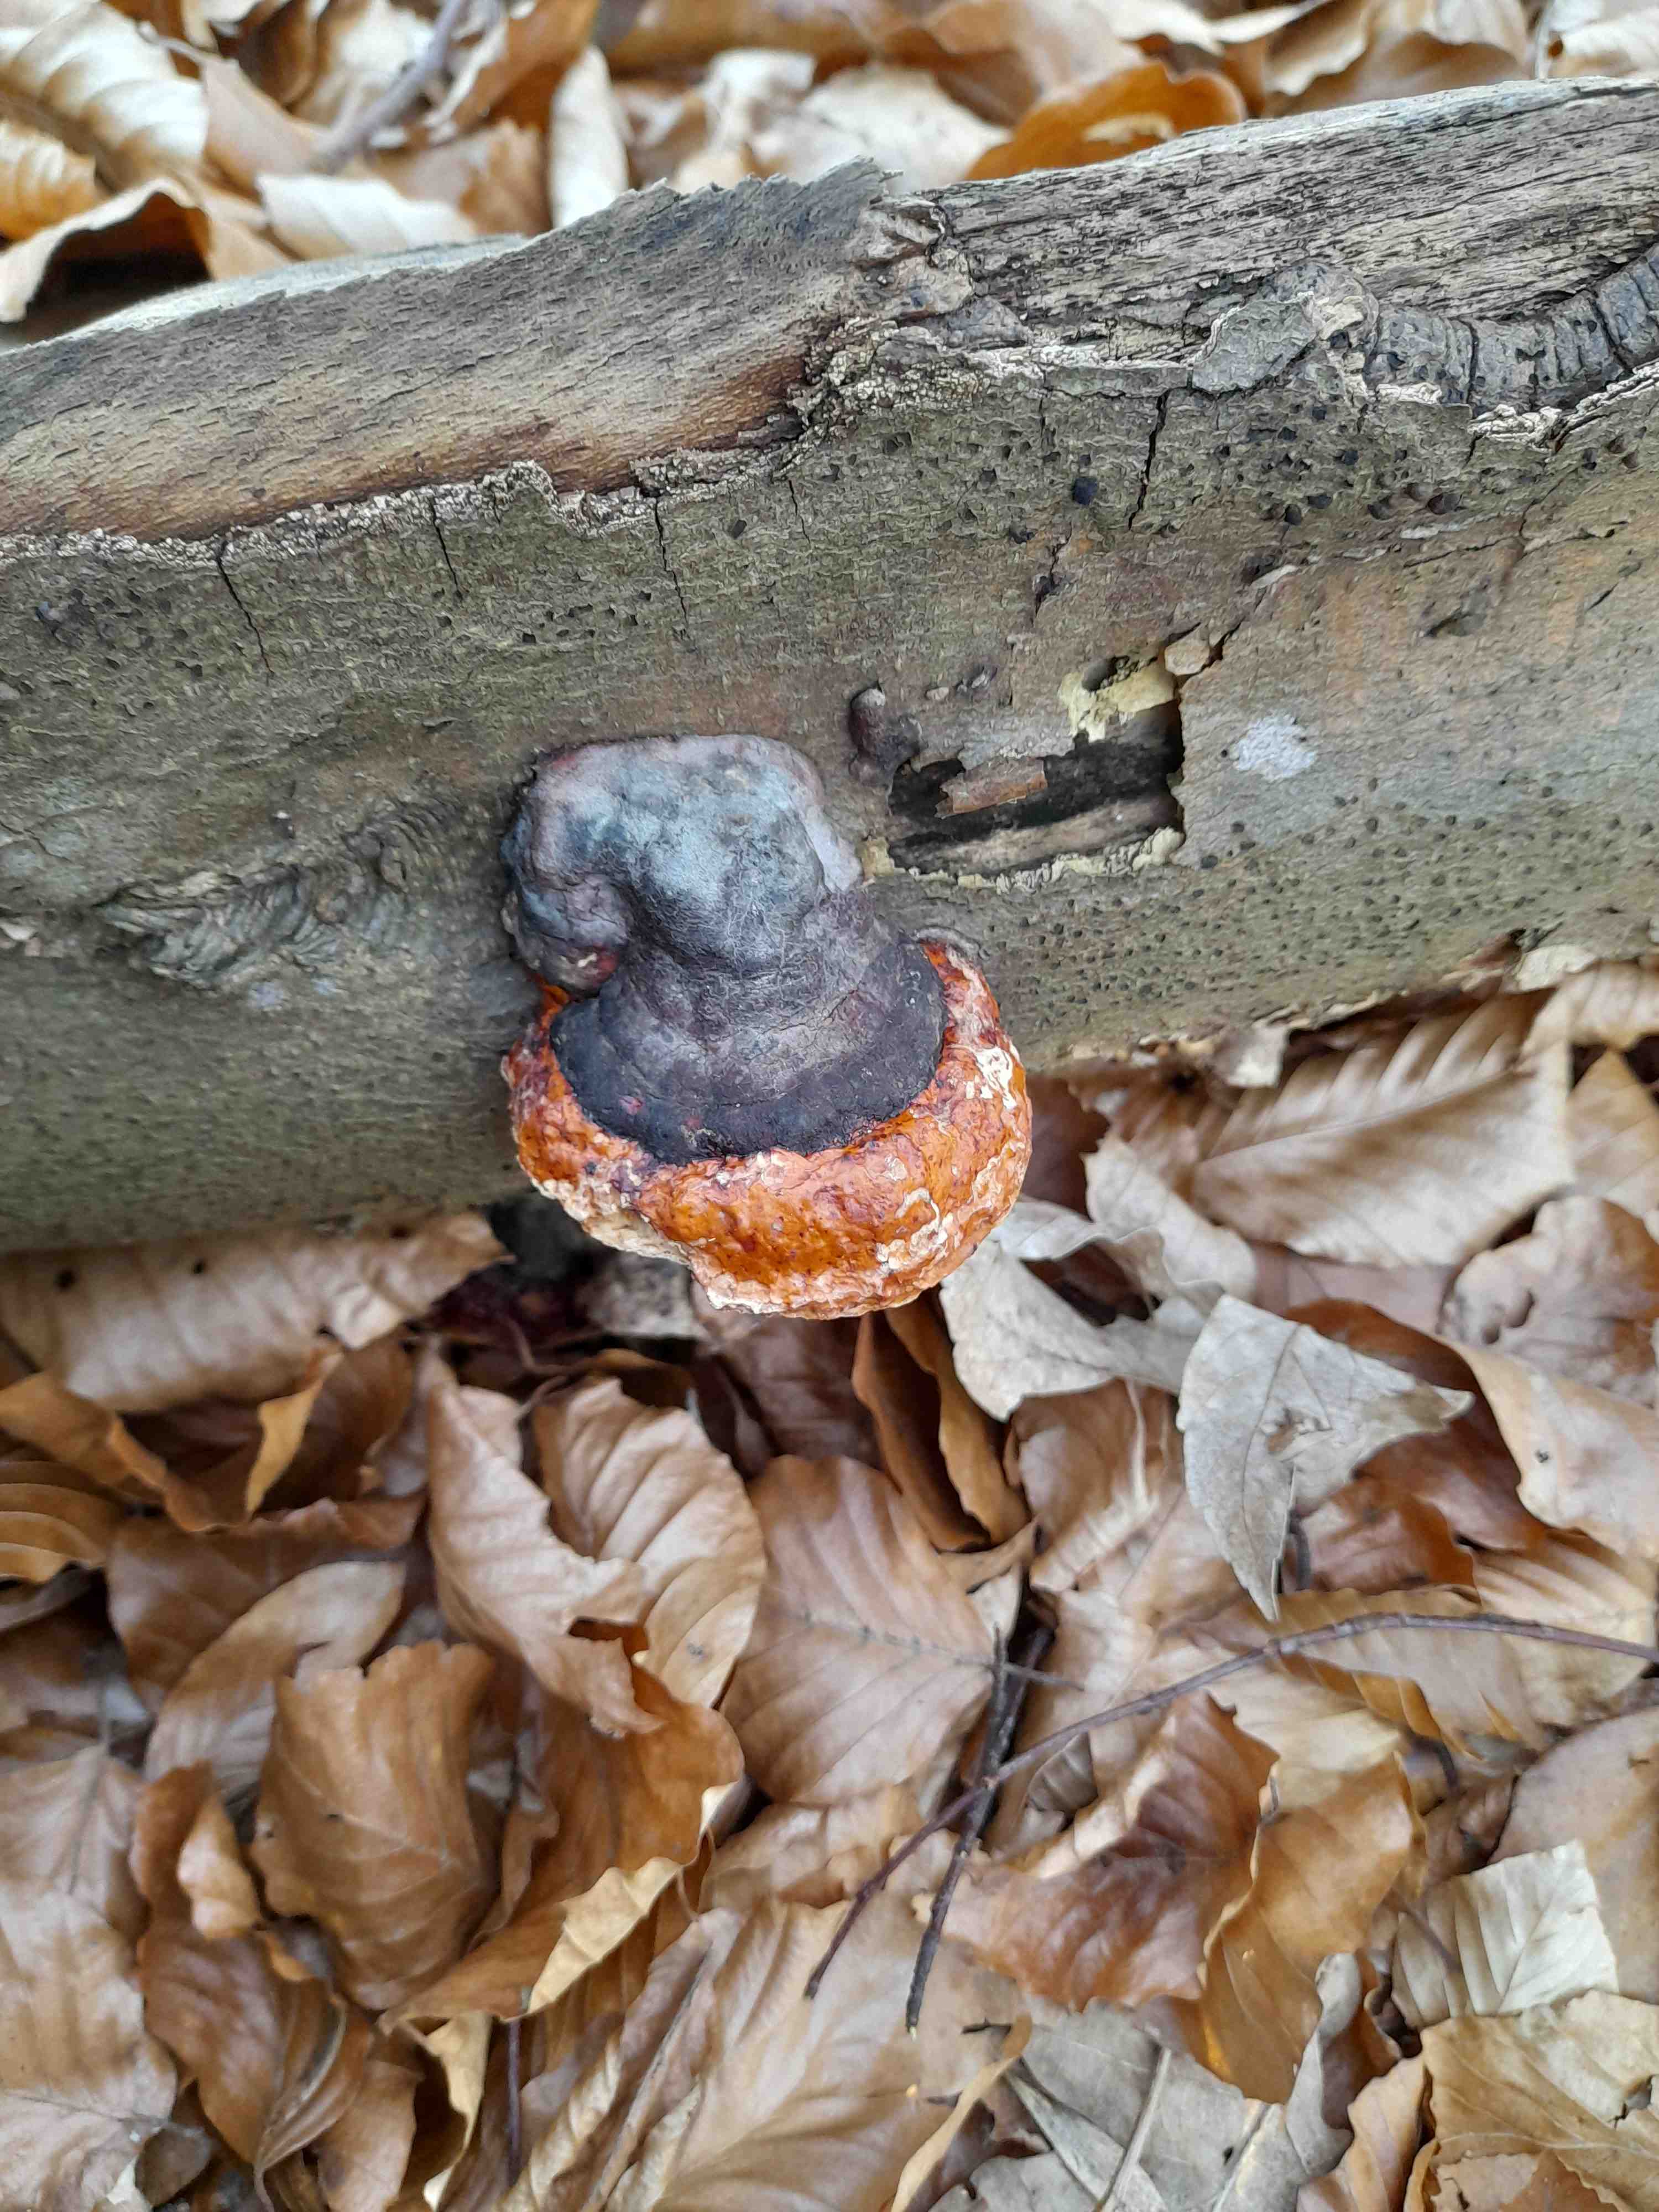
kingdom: Fungi
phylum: Basidiomycota
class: Agaricomycetes
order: Polyporales
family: Fomitopsidaceae
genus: Fomitopsis
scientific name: Fomitopsis pinicola
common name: randbæltet hovporesvamp
